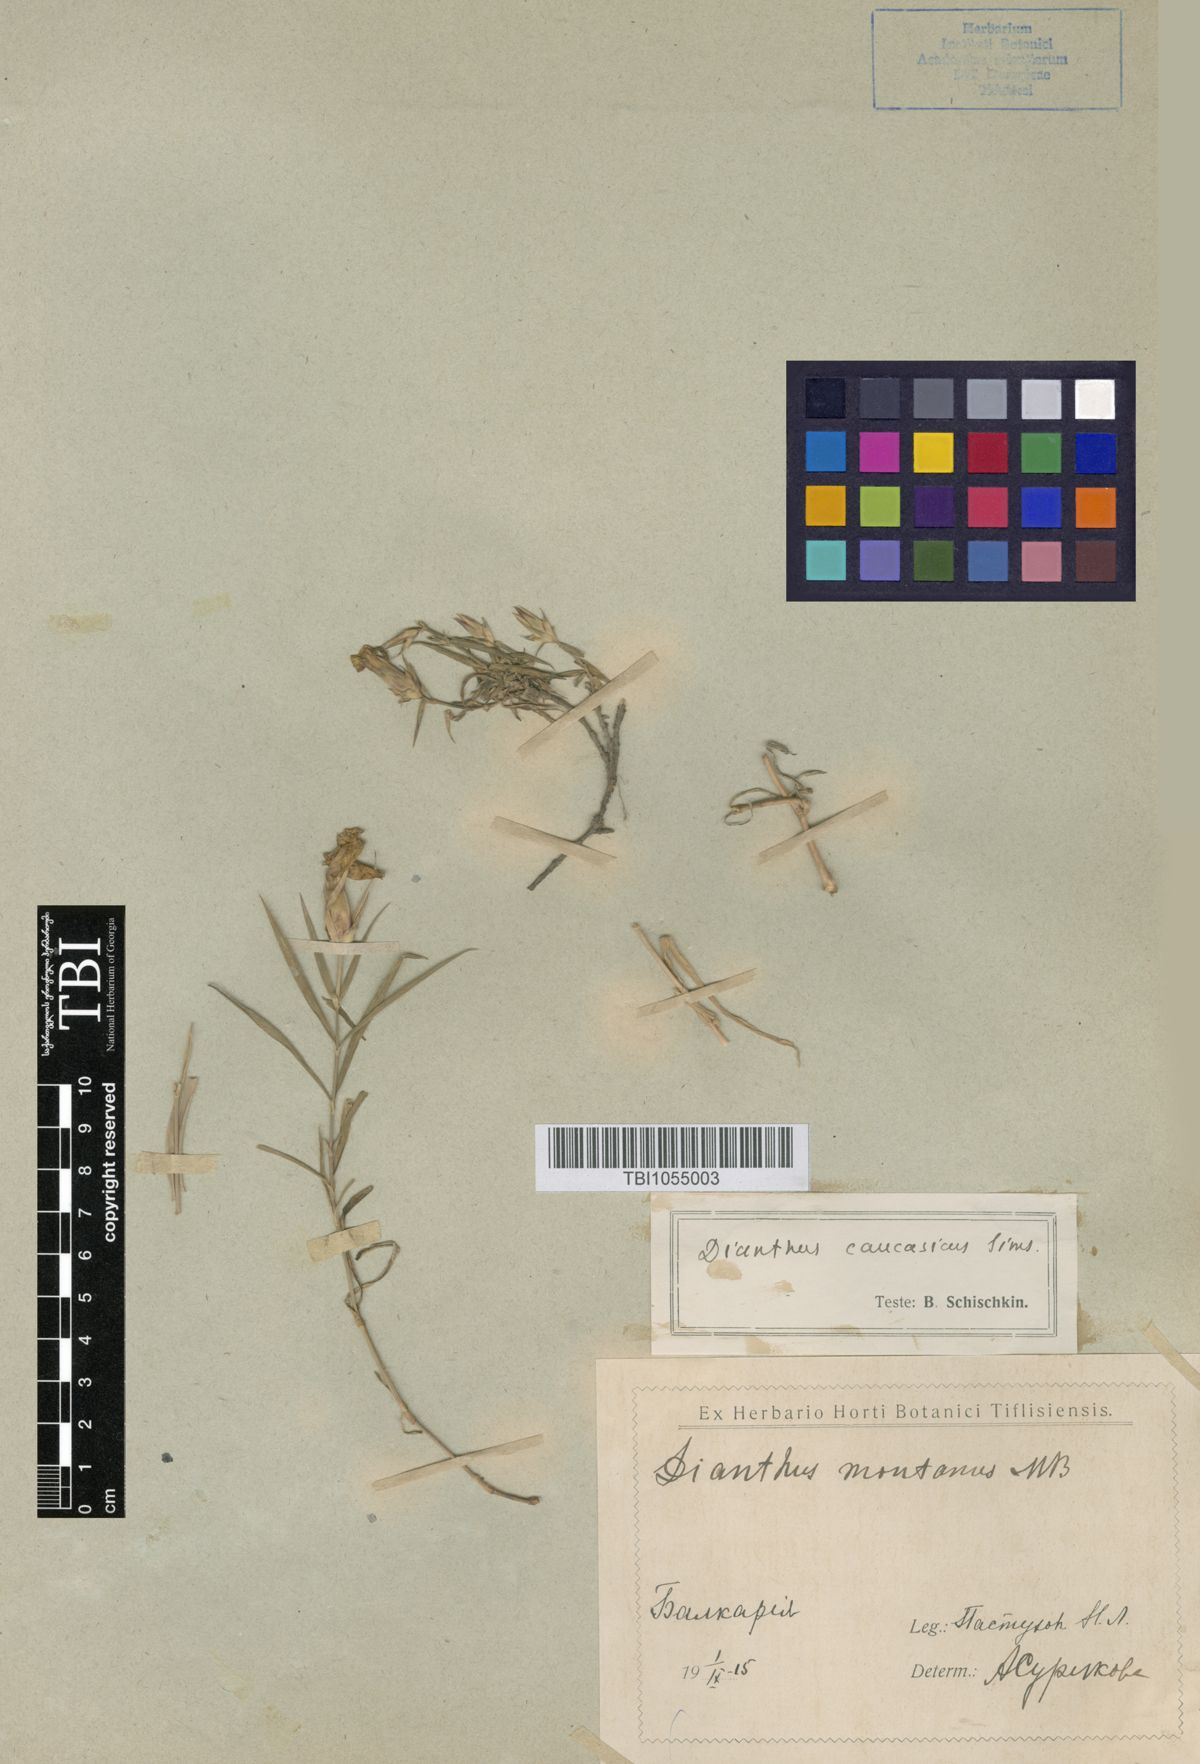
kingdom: Plantae
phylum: Tracheophyta
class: Magnoliopsida
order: Caryophyllales
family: Caryophyllaceae
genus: Dianthus
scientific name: Dianthus caucaseus
